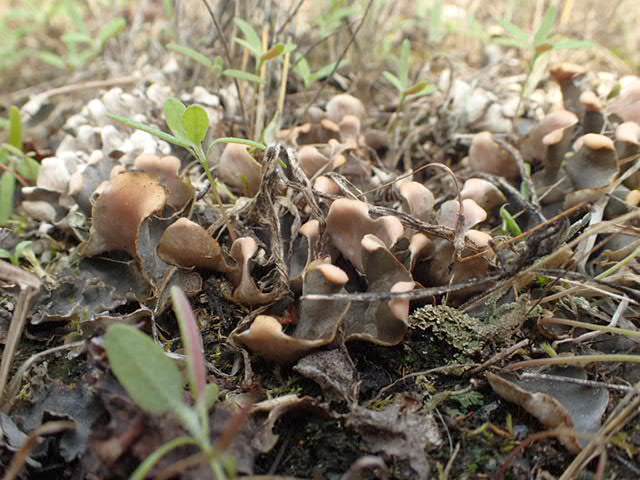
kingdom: Fungi
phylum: Ascomycota
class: Lecanoromycetes
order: Peltigerales
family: Peltigeraceae
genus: Peltigera
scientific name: Peltigera didactyla
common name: liden skjoldlav
